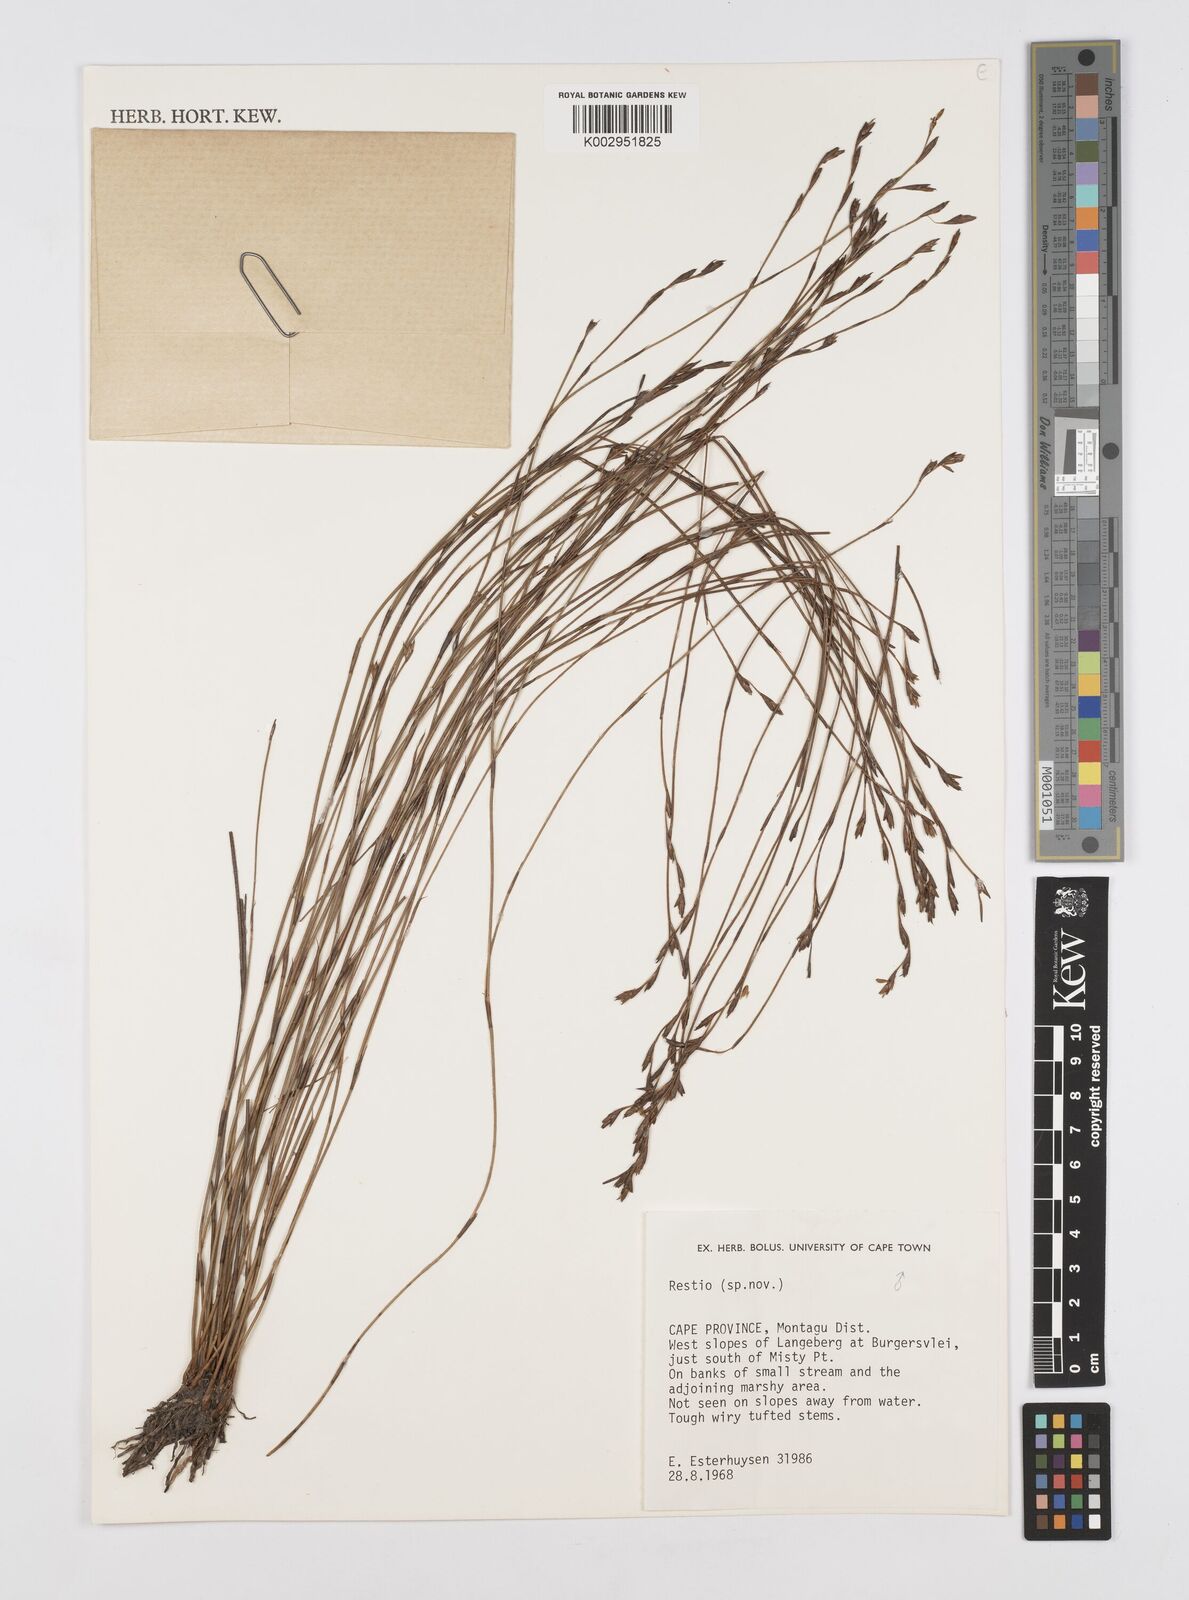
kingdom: Plantae
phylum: Tracheophyta
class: Liliopsida
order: Poales
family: Restionaceae
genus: Restio
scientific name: Restio
